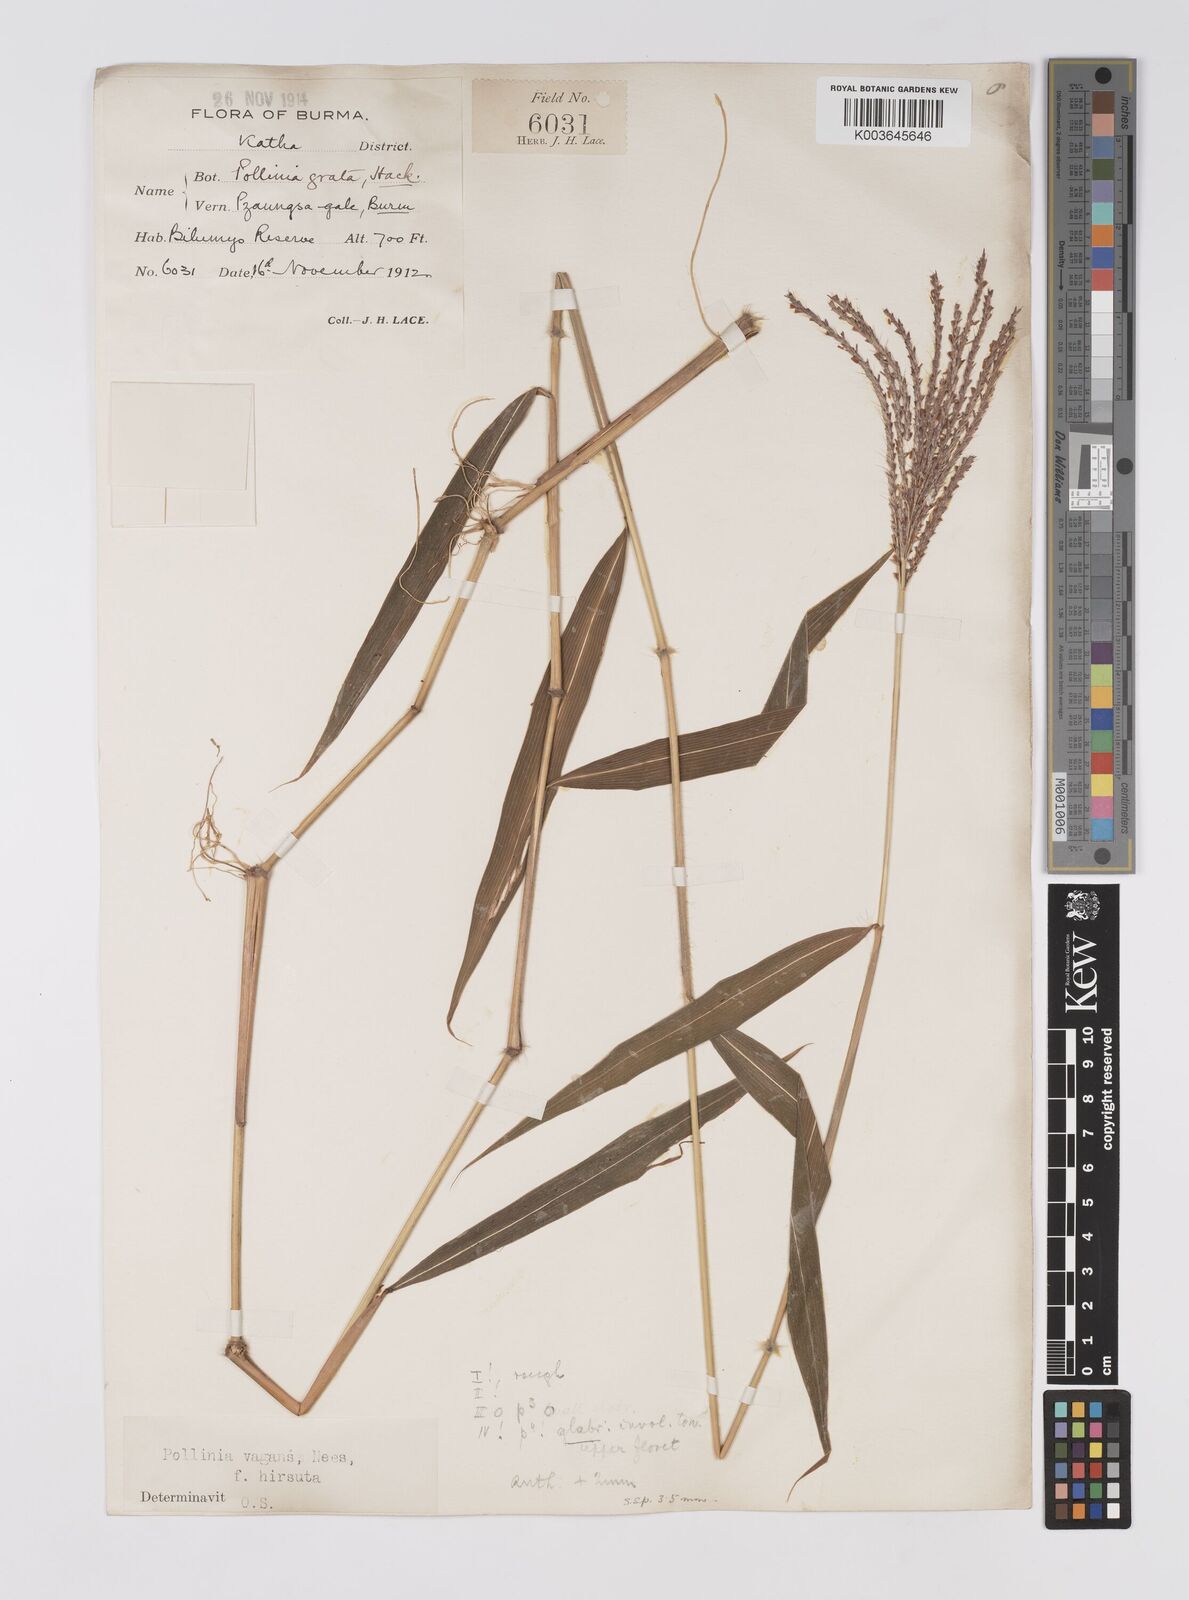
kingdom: Plantae
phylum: Tracheophyta
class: Liliopsida
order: Poales
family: Poaceae
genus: Microstegium
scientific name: Microstegium fasciculatum
